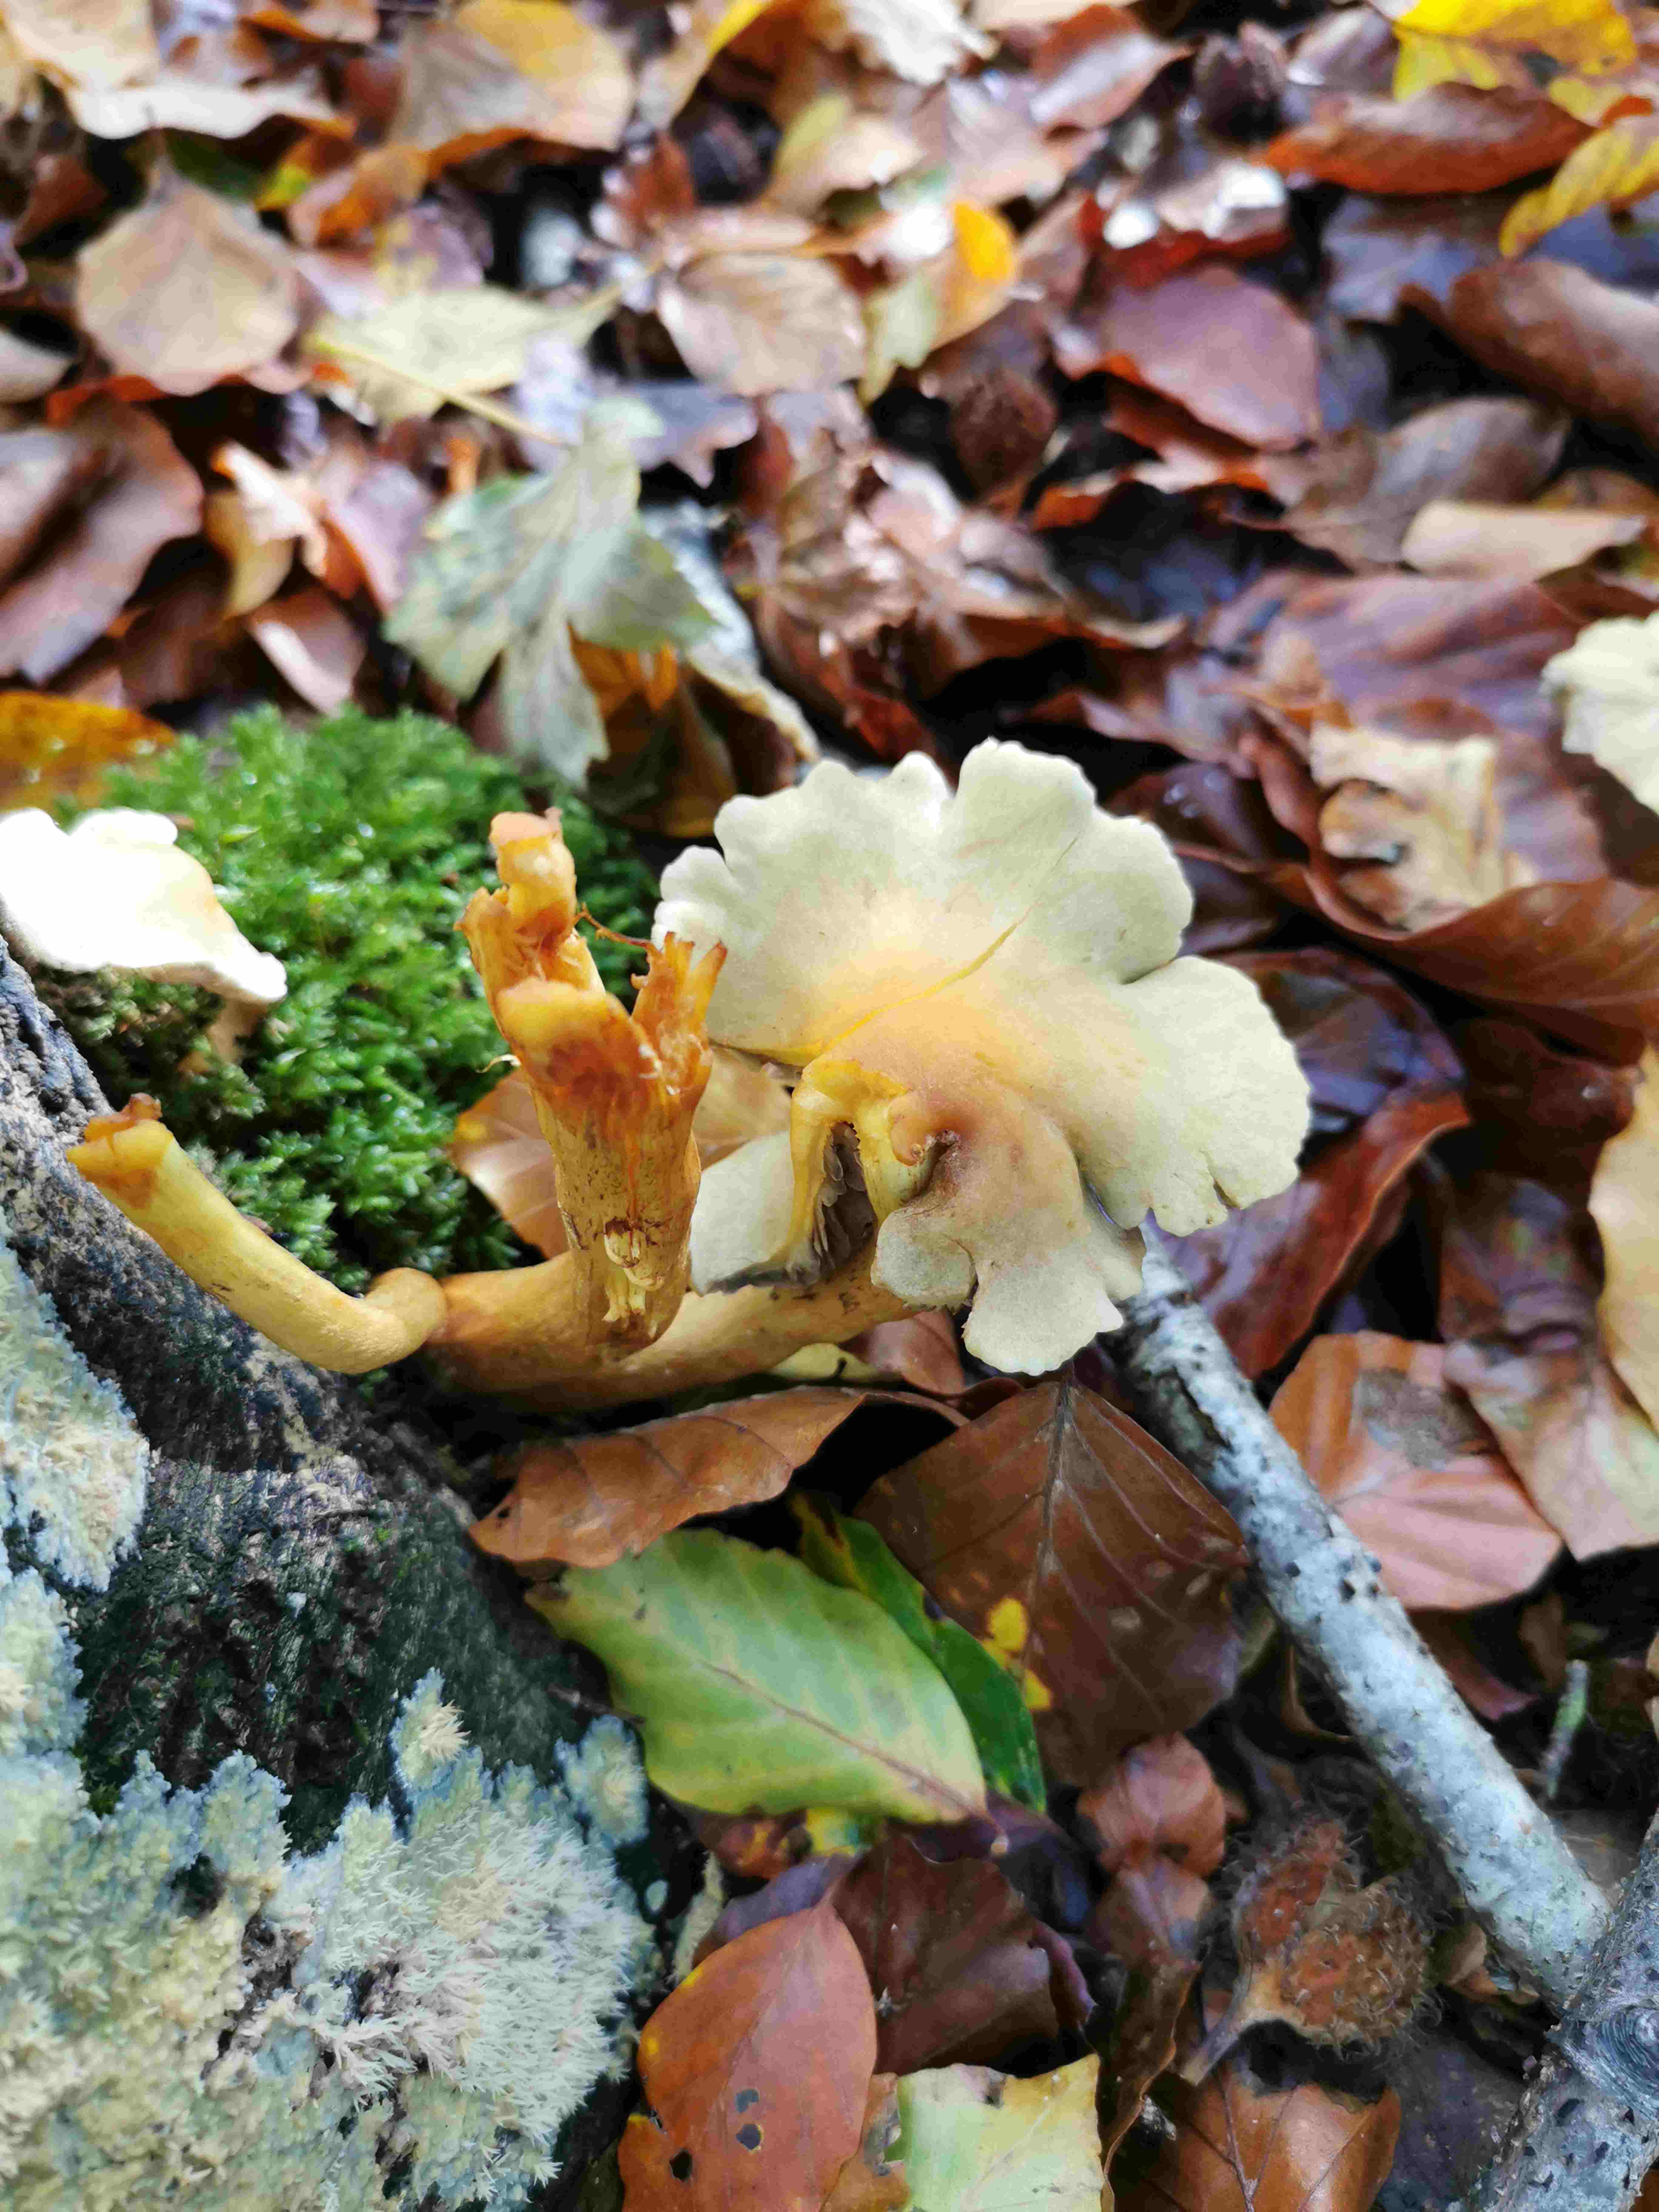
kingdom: Fungi
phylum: Basidiomycota
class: Agaricomycetes
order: Agaricales
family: Strophariaceae
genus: Hypholoma
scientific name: Hypholoma fasciculare
